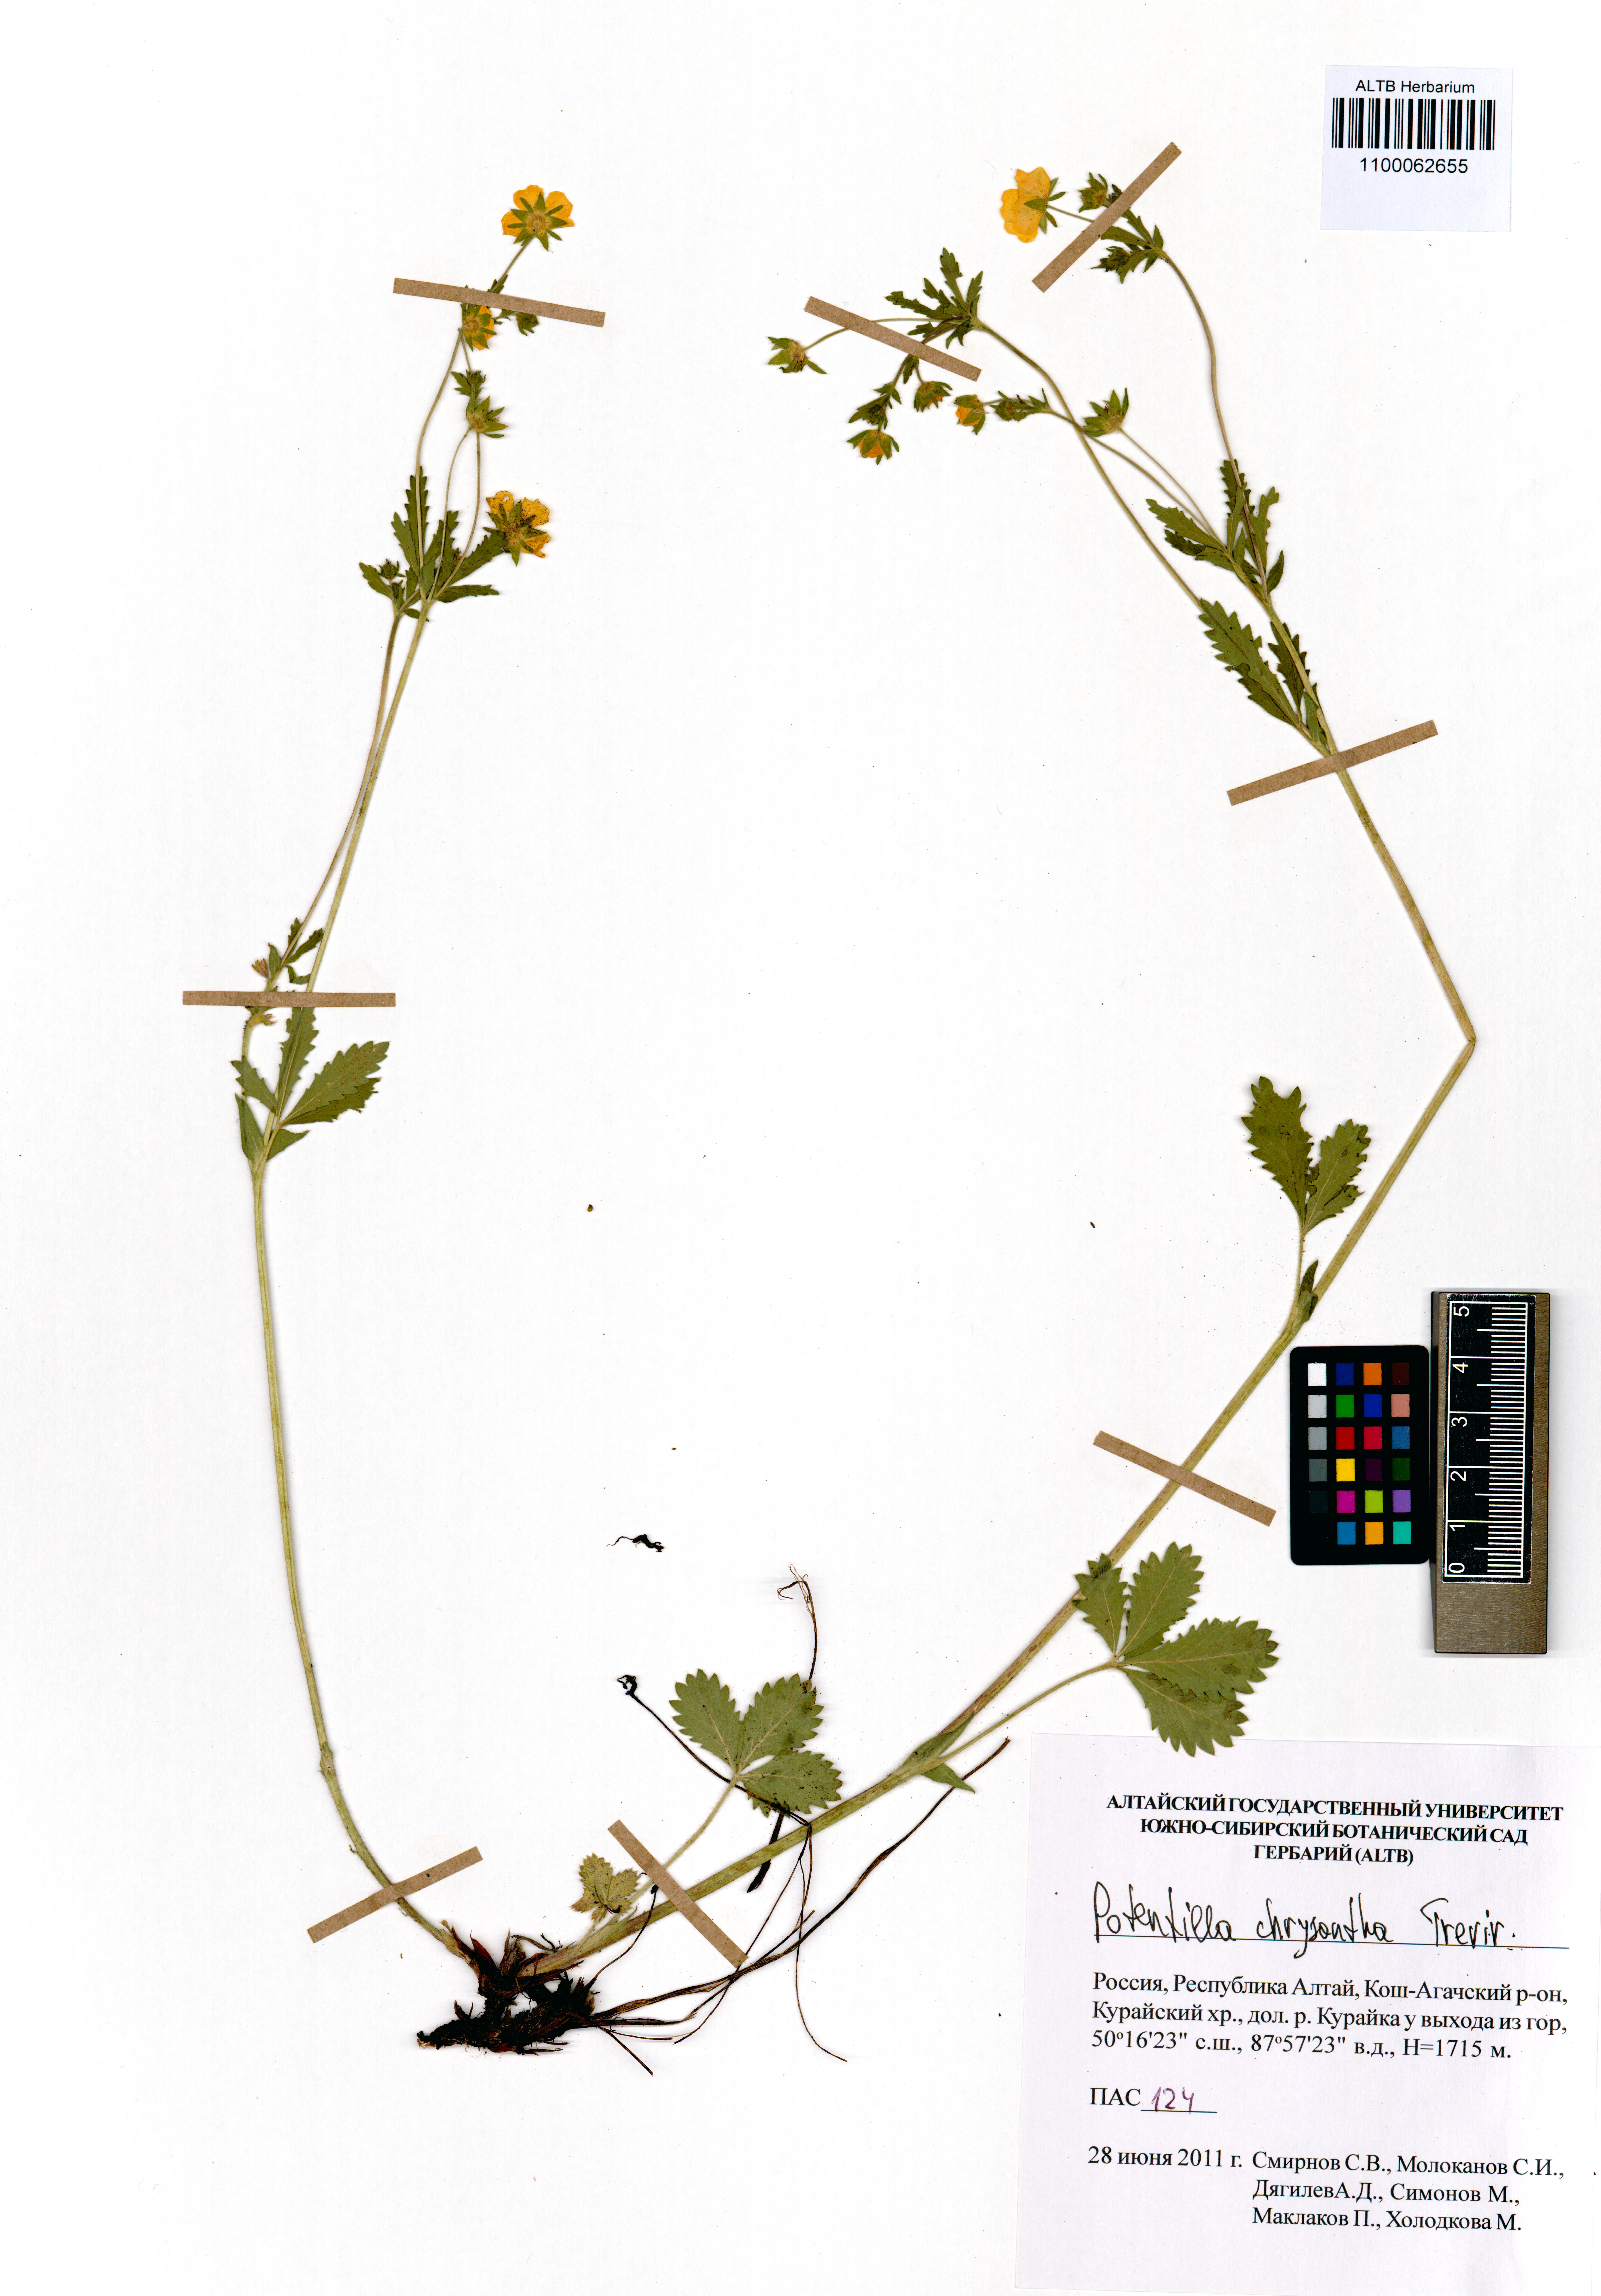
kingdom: Plantae
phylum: Tracheophyta
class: Magnoliopsida
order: Rosales
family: Rosaceae
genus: Potentilla
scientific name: Potentilla chrysantha
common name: Thuringian cinquefoil
